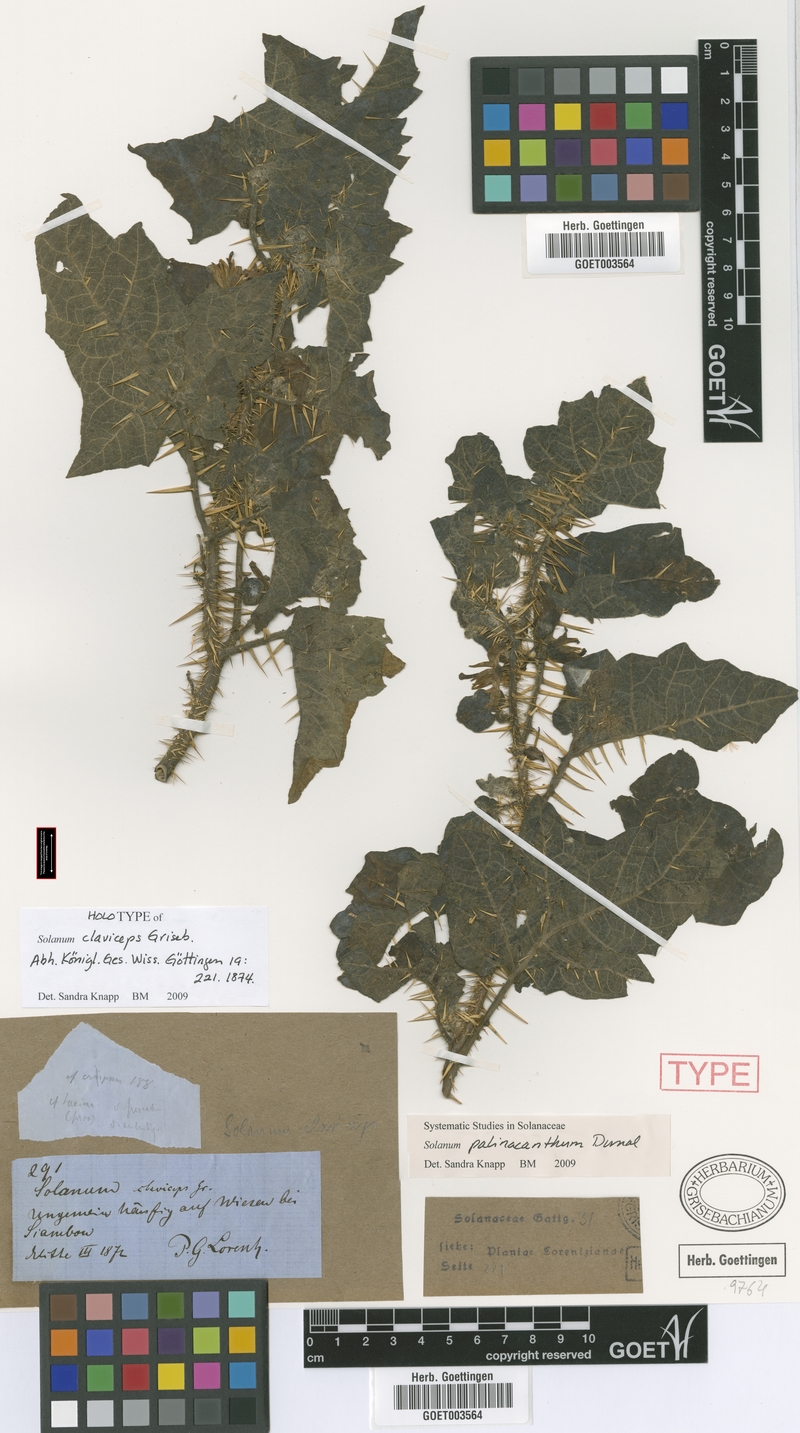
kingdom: Plantae
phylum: Tracheophyta
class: Magnoliopsida
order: Solanales
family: Solanaceae
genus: Solanum
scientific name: Solanum palinacanthum
